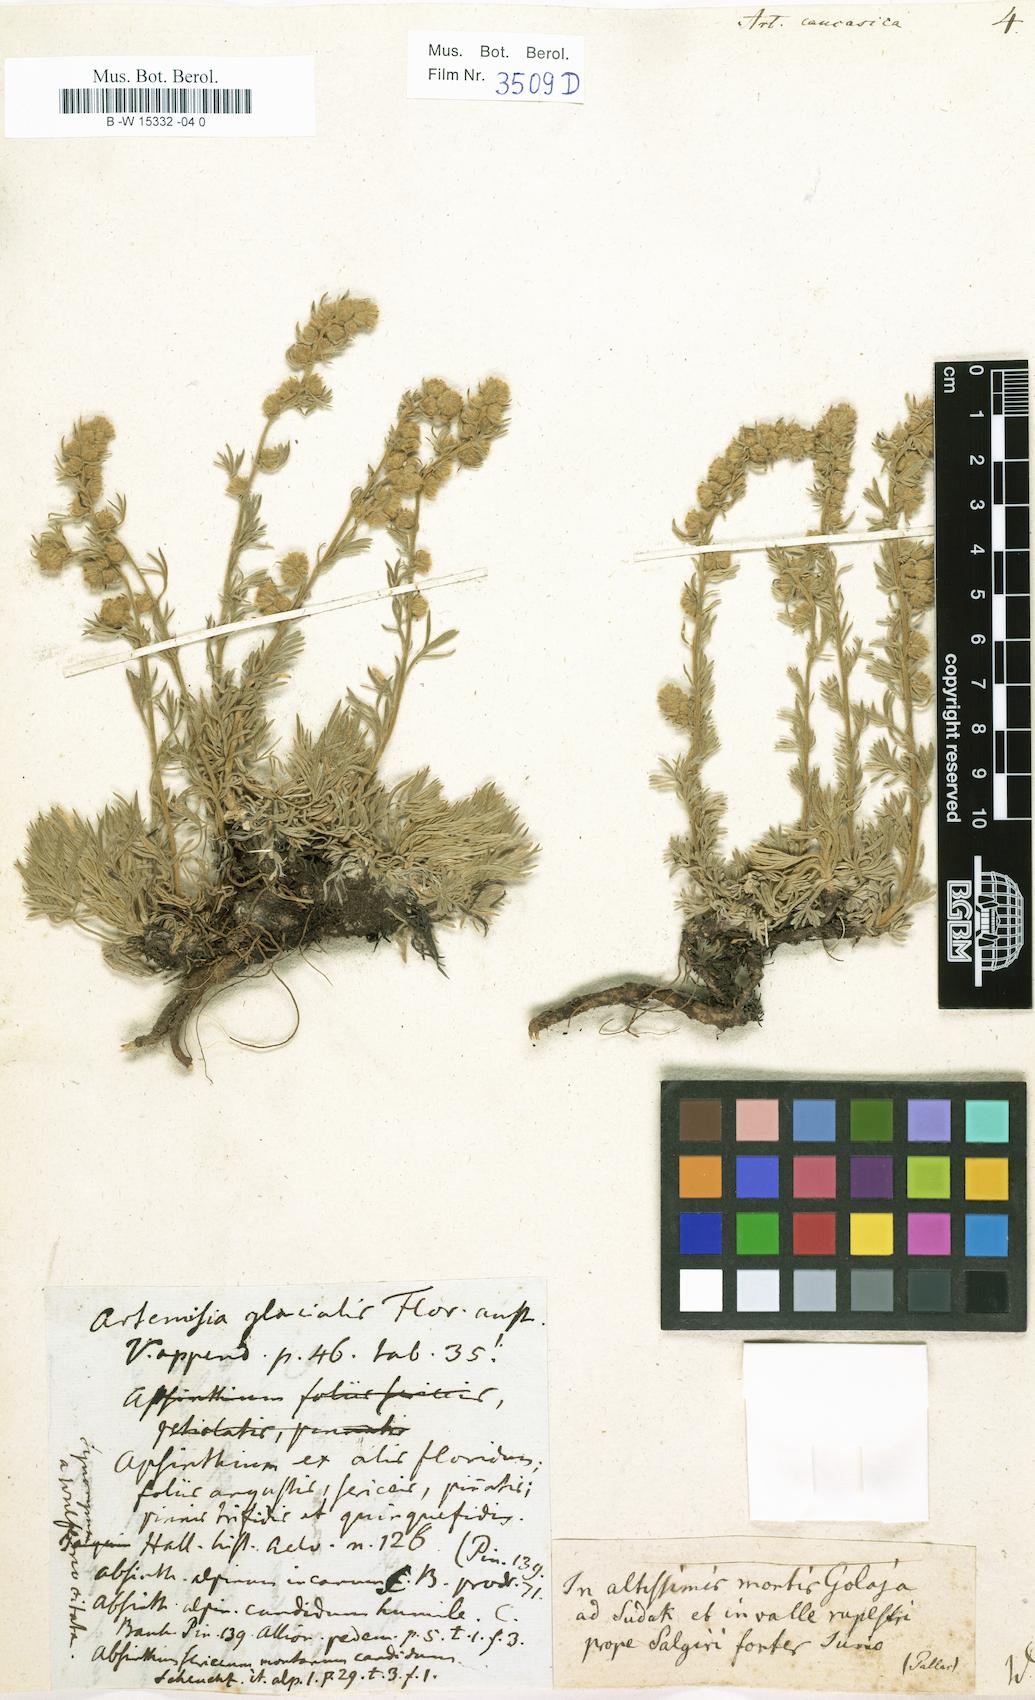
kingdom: Plantae
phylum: Tracheophyta
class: Magnoliopsida
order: Asterales
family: Asteraceae
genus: Artemisia
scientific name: Artemisia alpina
